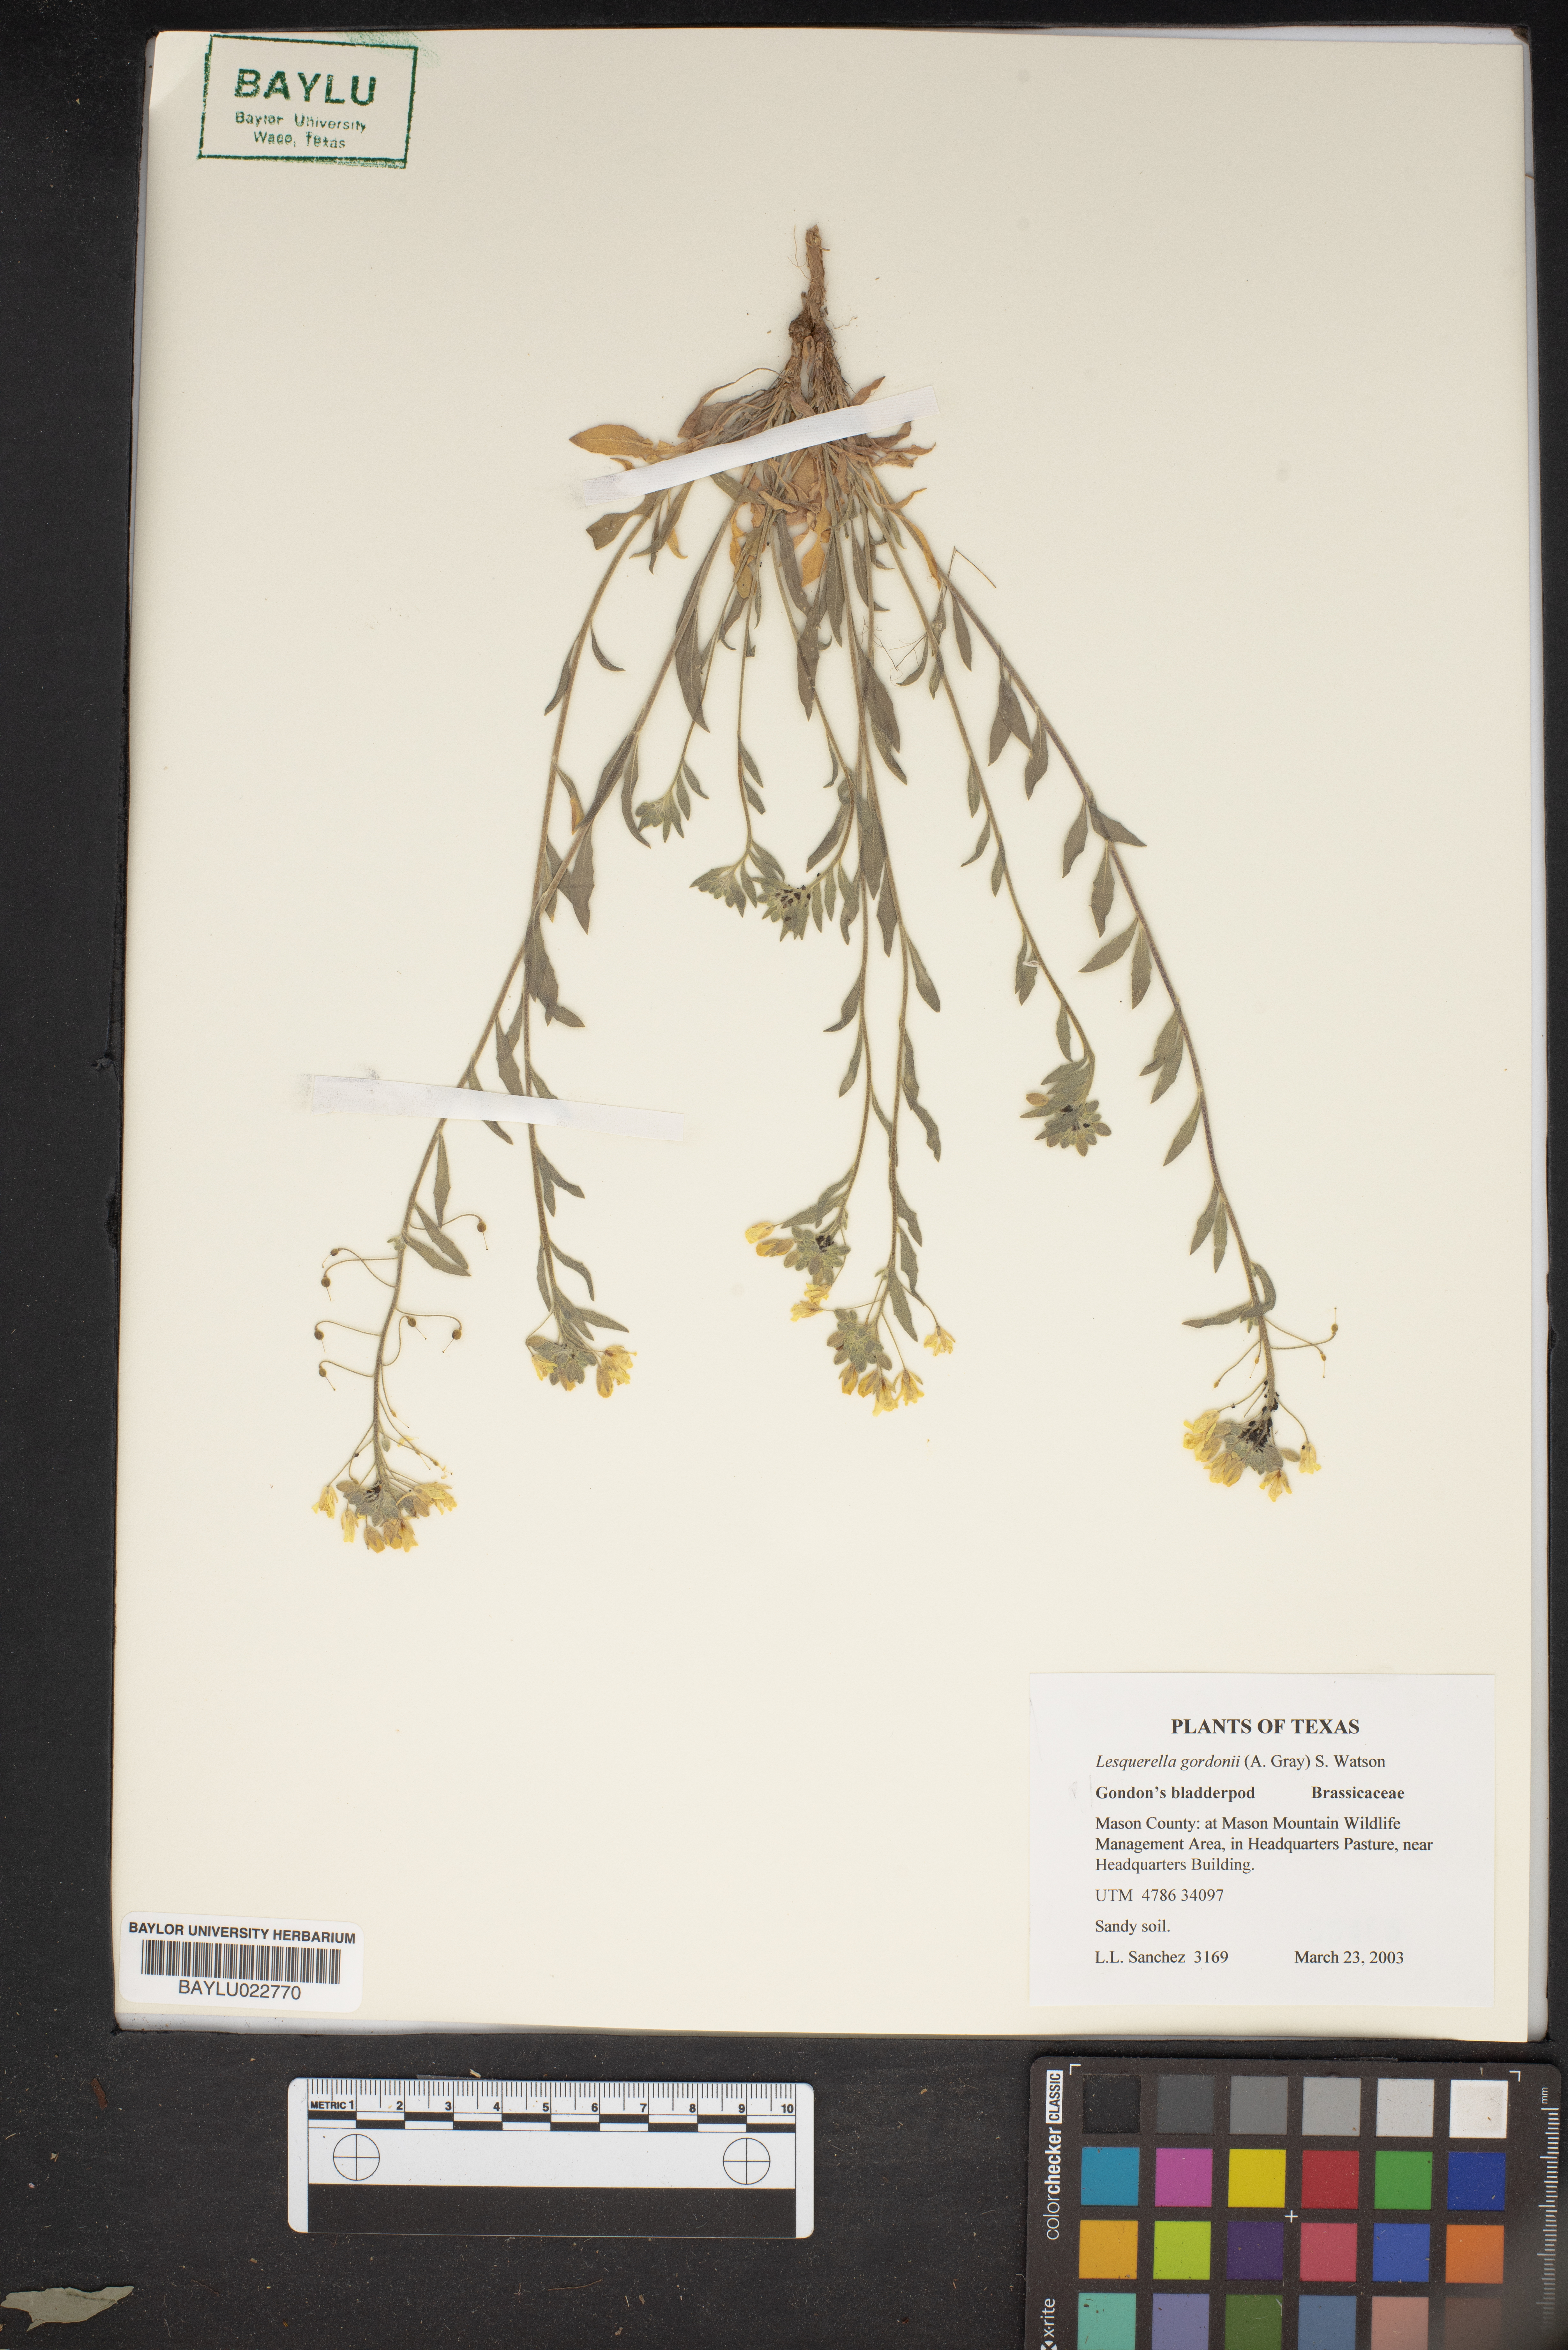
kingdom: Plantae
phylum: Tracheophyta
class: Magnoliopsida
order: Brassicales
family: Brassicaceae
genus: Physaria
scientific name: Physaria gordonii
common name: Gordon's bladderpod
